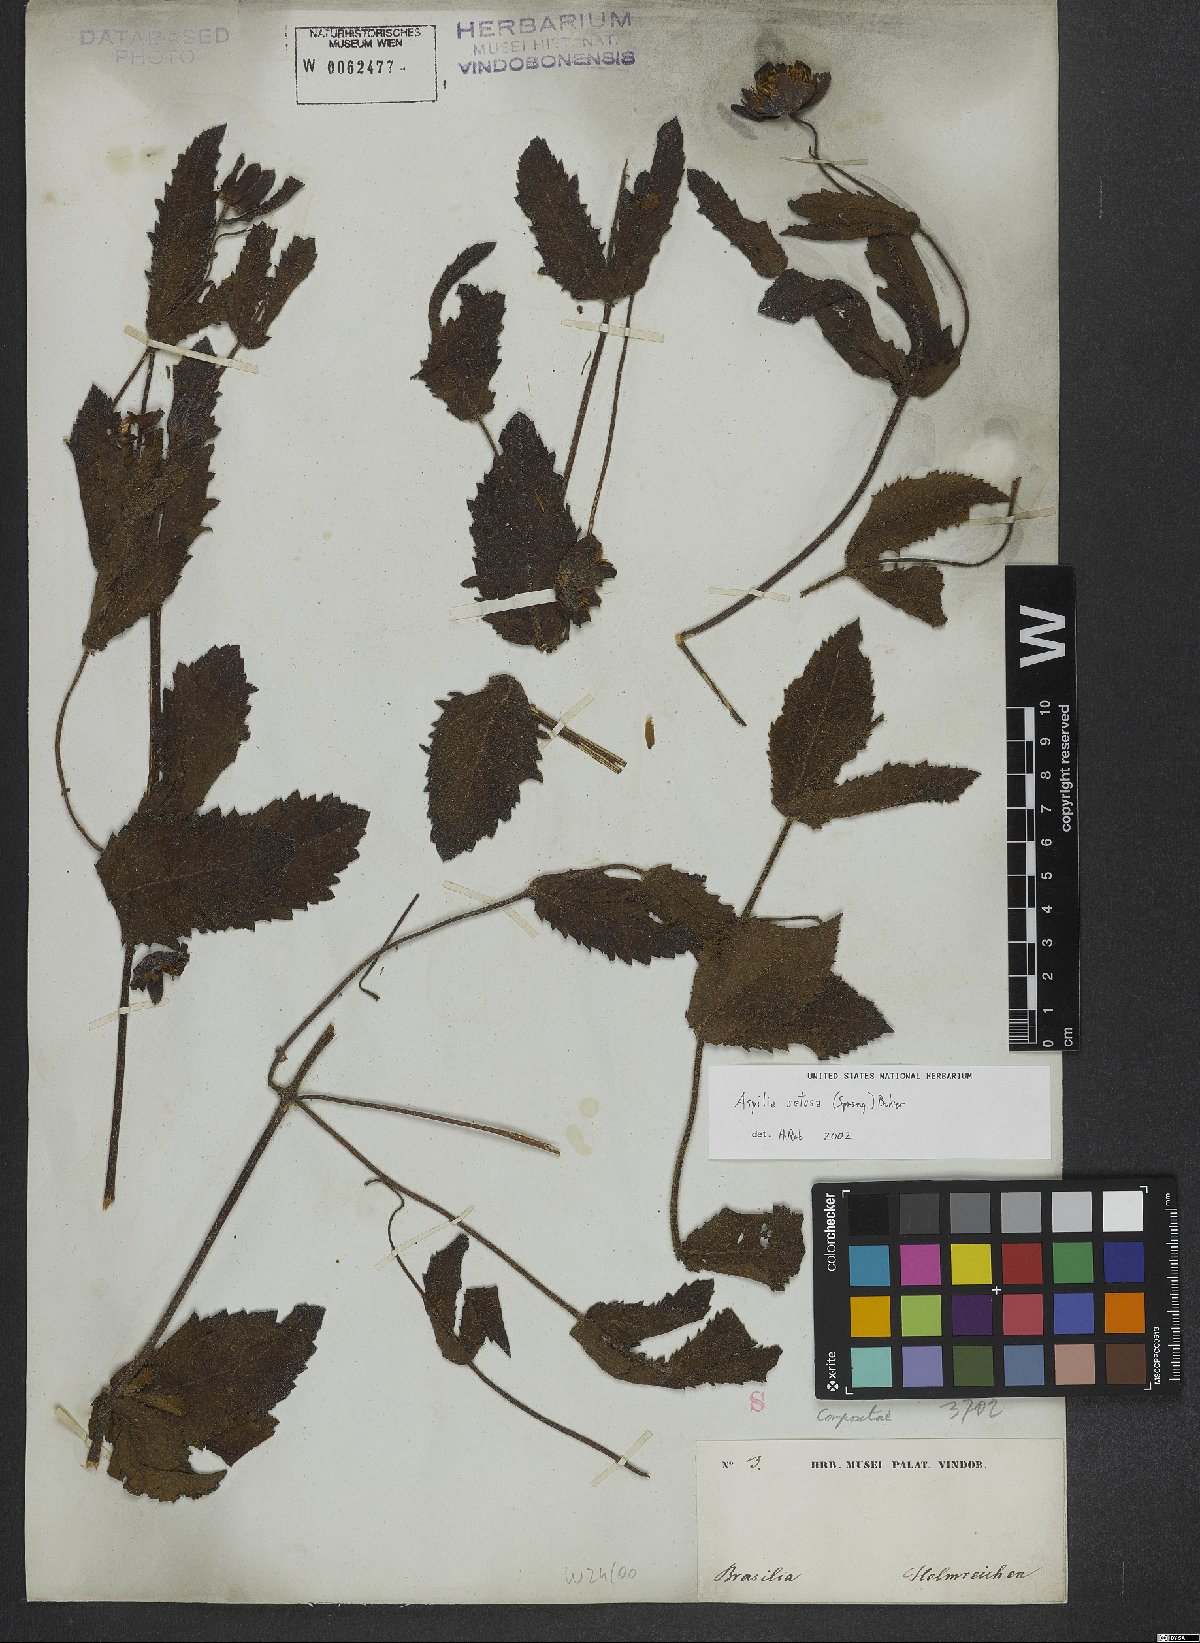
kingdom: Plantae
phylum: Tracheophyta
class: Magnoliopsida
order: Asterales
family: Asteraceae
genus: Wedelia
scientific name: Wedelia montevidensis
